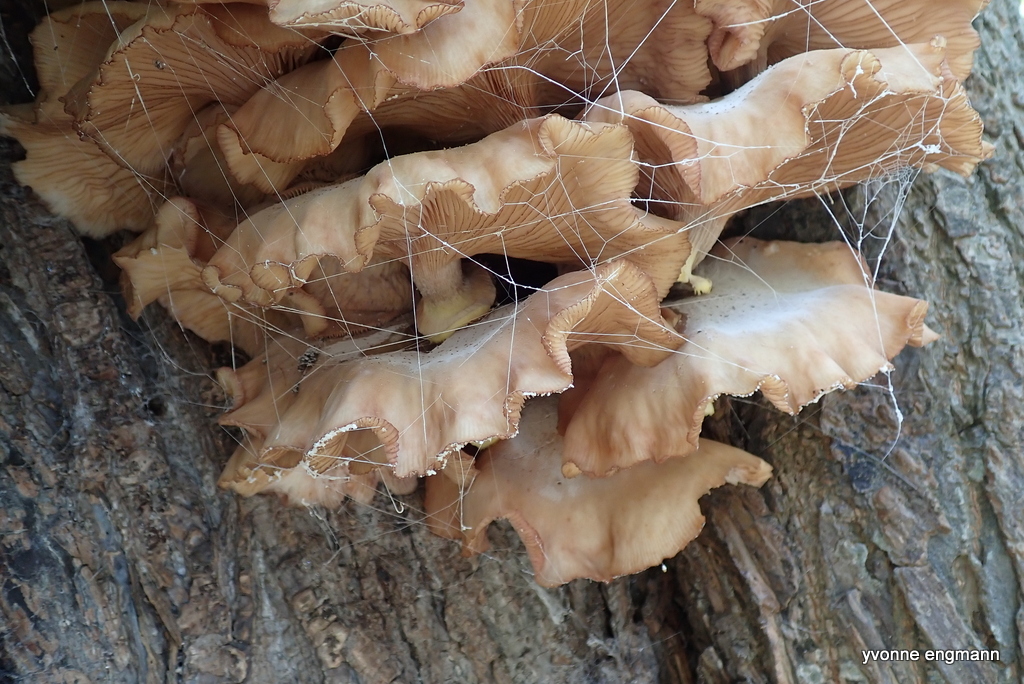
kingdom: Fungi
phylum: Basidiomycota
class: Agaricomycetes
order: Agaricales
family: Physalacriaceae
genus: Armillaria
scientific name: Armillaria lutea
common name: køllestokket honningsvamp
